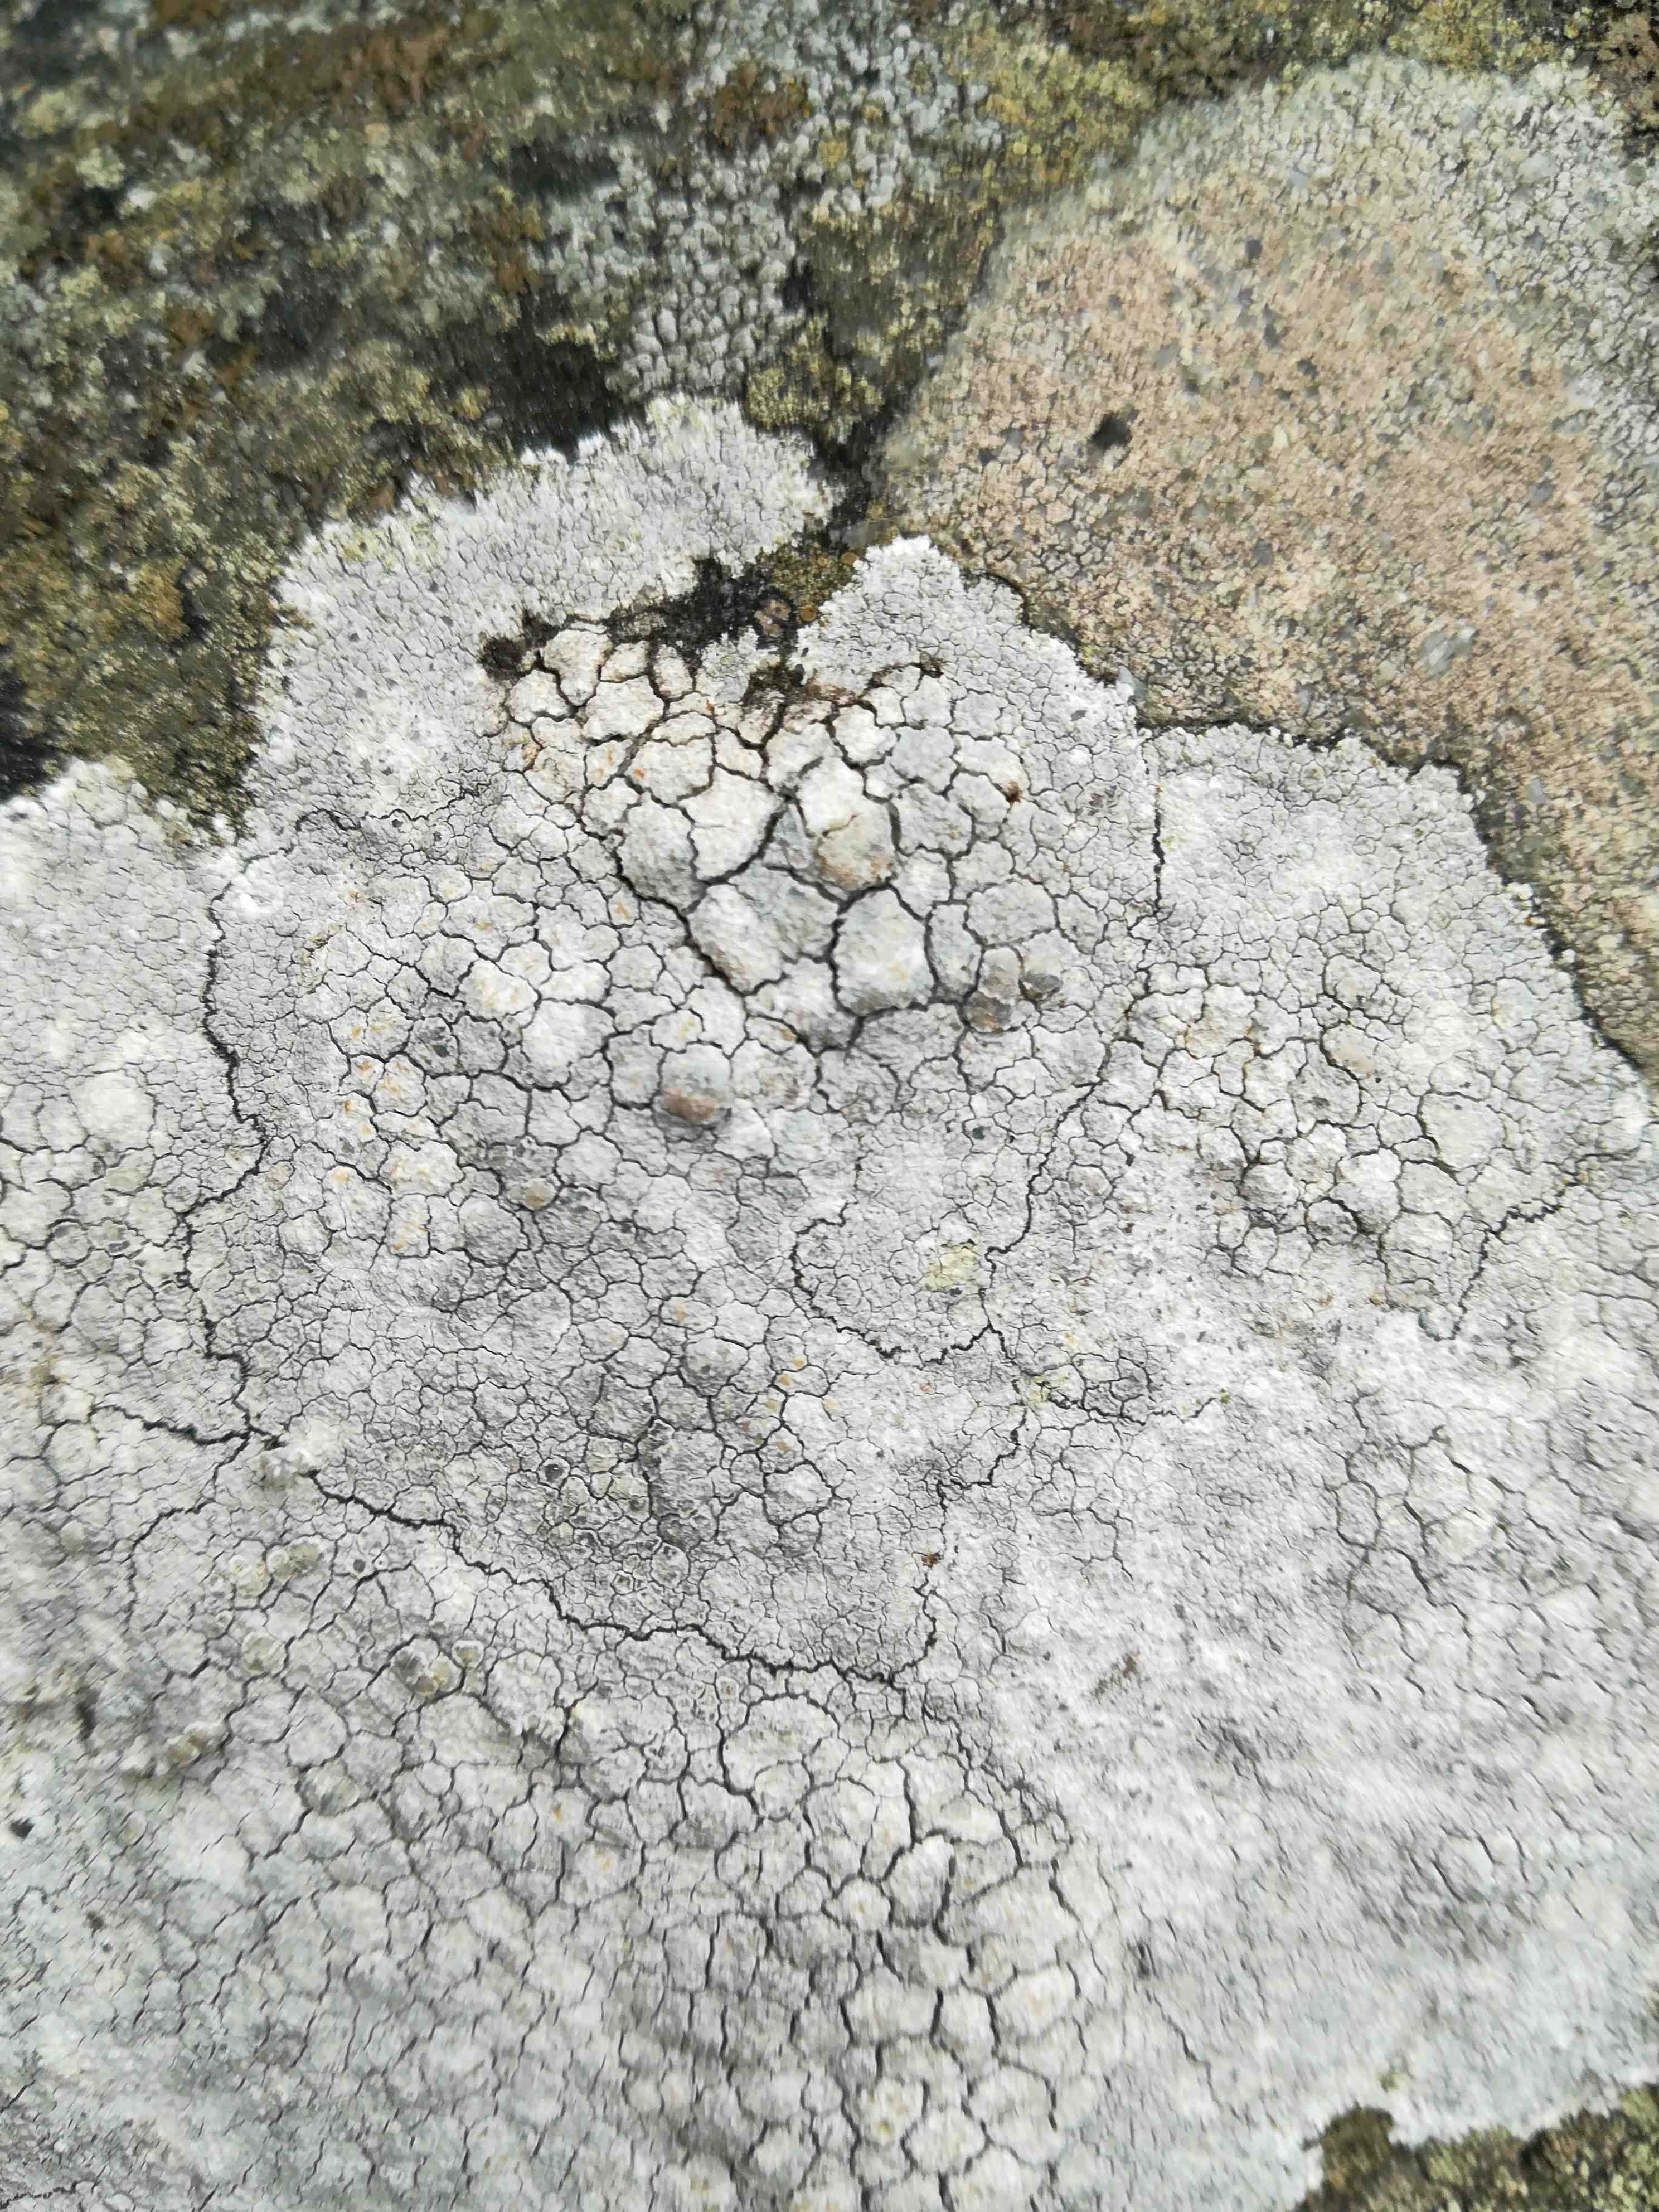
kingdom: Fungi
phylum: Ascomycota
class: Lecanoromycetes
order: Lecanorales
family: Lecanoraceae
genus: Glaucomaria
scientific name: Glaucomaria rupicola
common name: stengærde-kantskivelav
